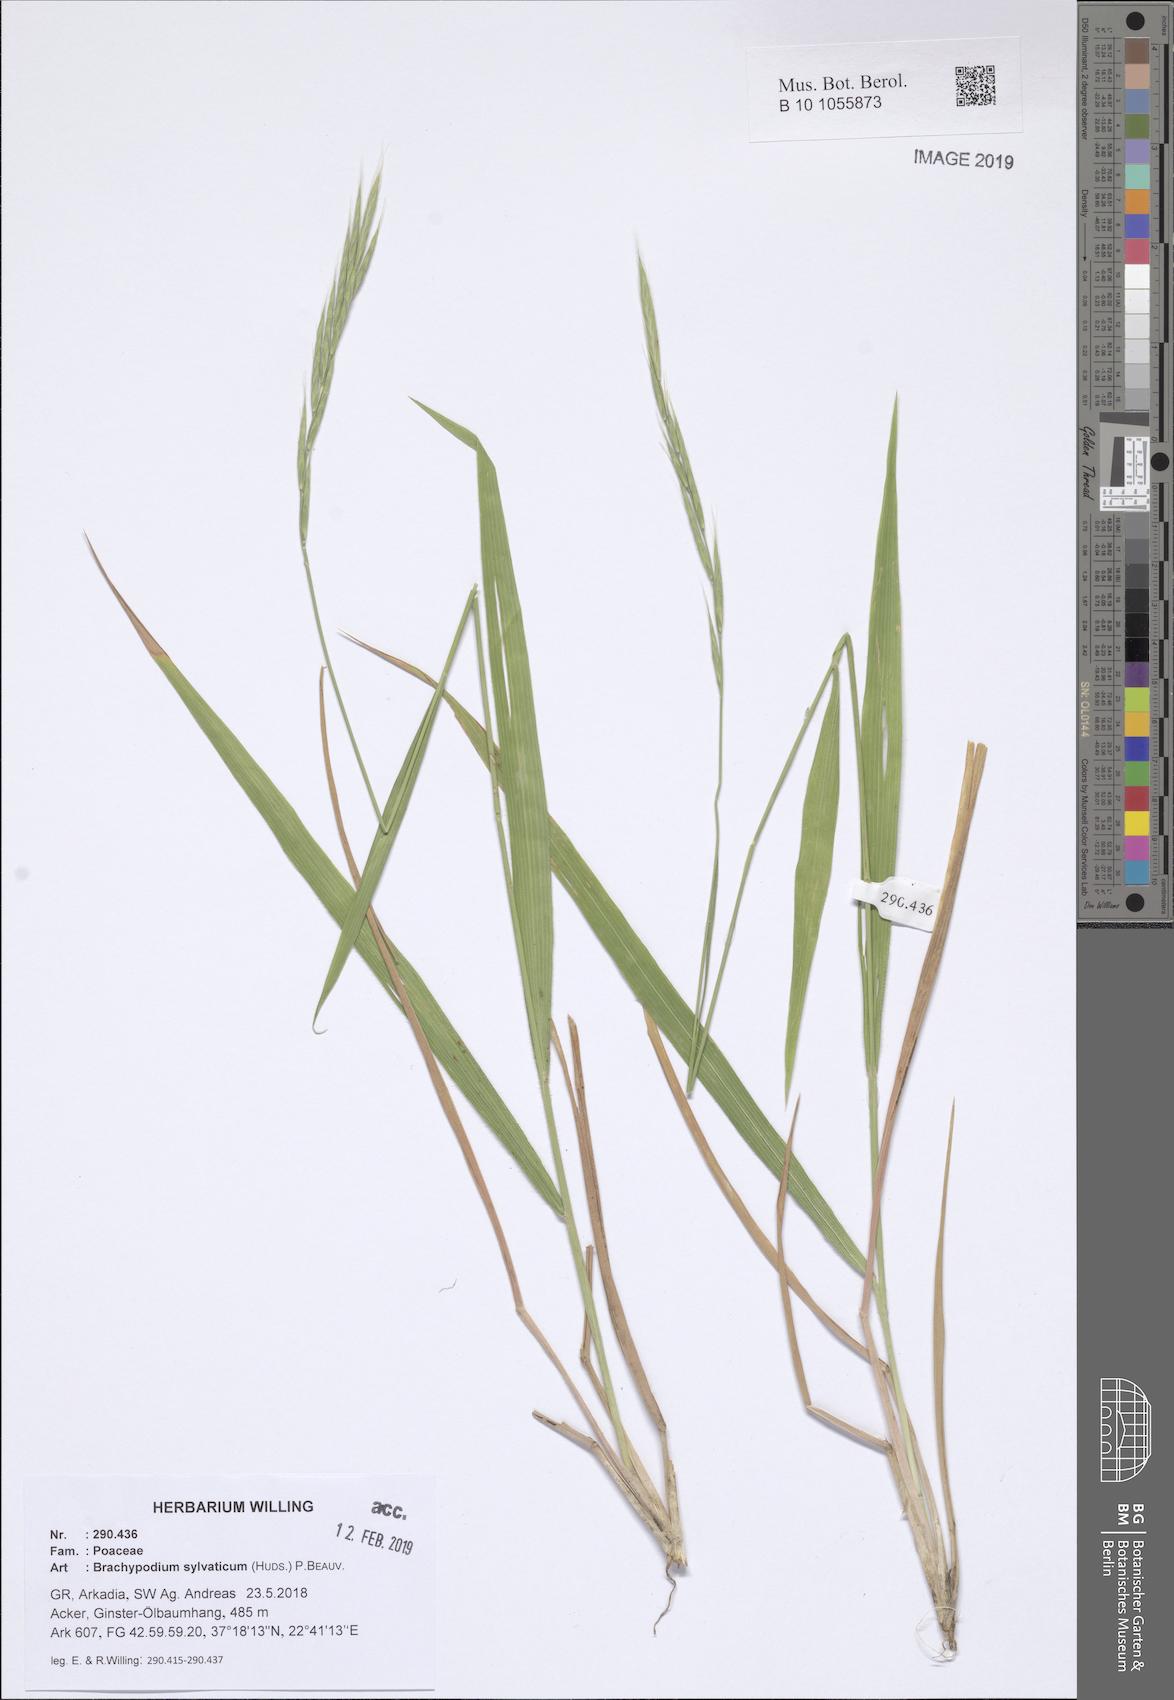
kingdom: Plantae
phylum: Tracheophyta
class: Liliopsida
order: Poales
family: Poaceae
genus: Brachypodium
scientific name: Brachypodium sylvaticum
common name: False-brome
